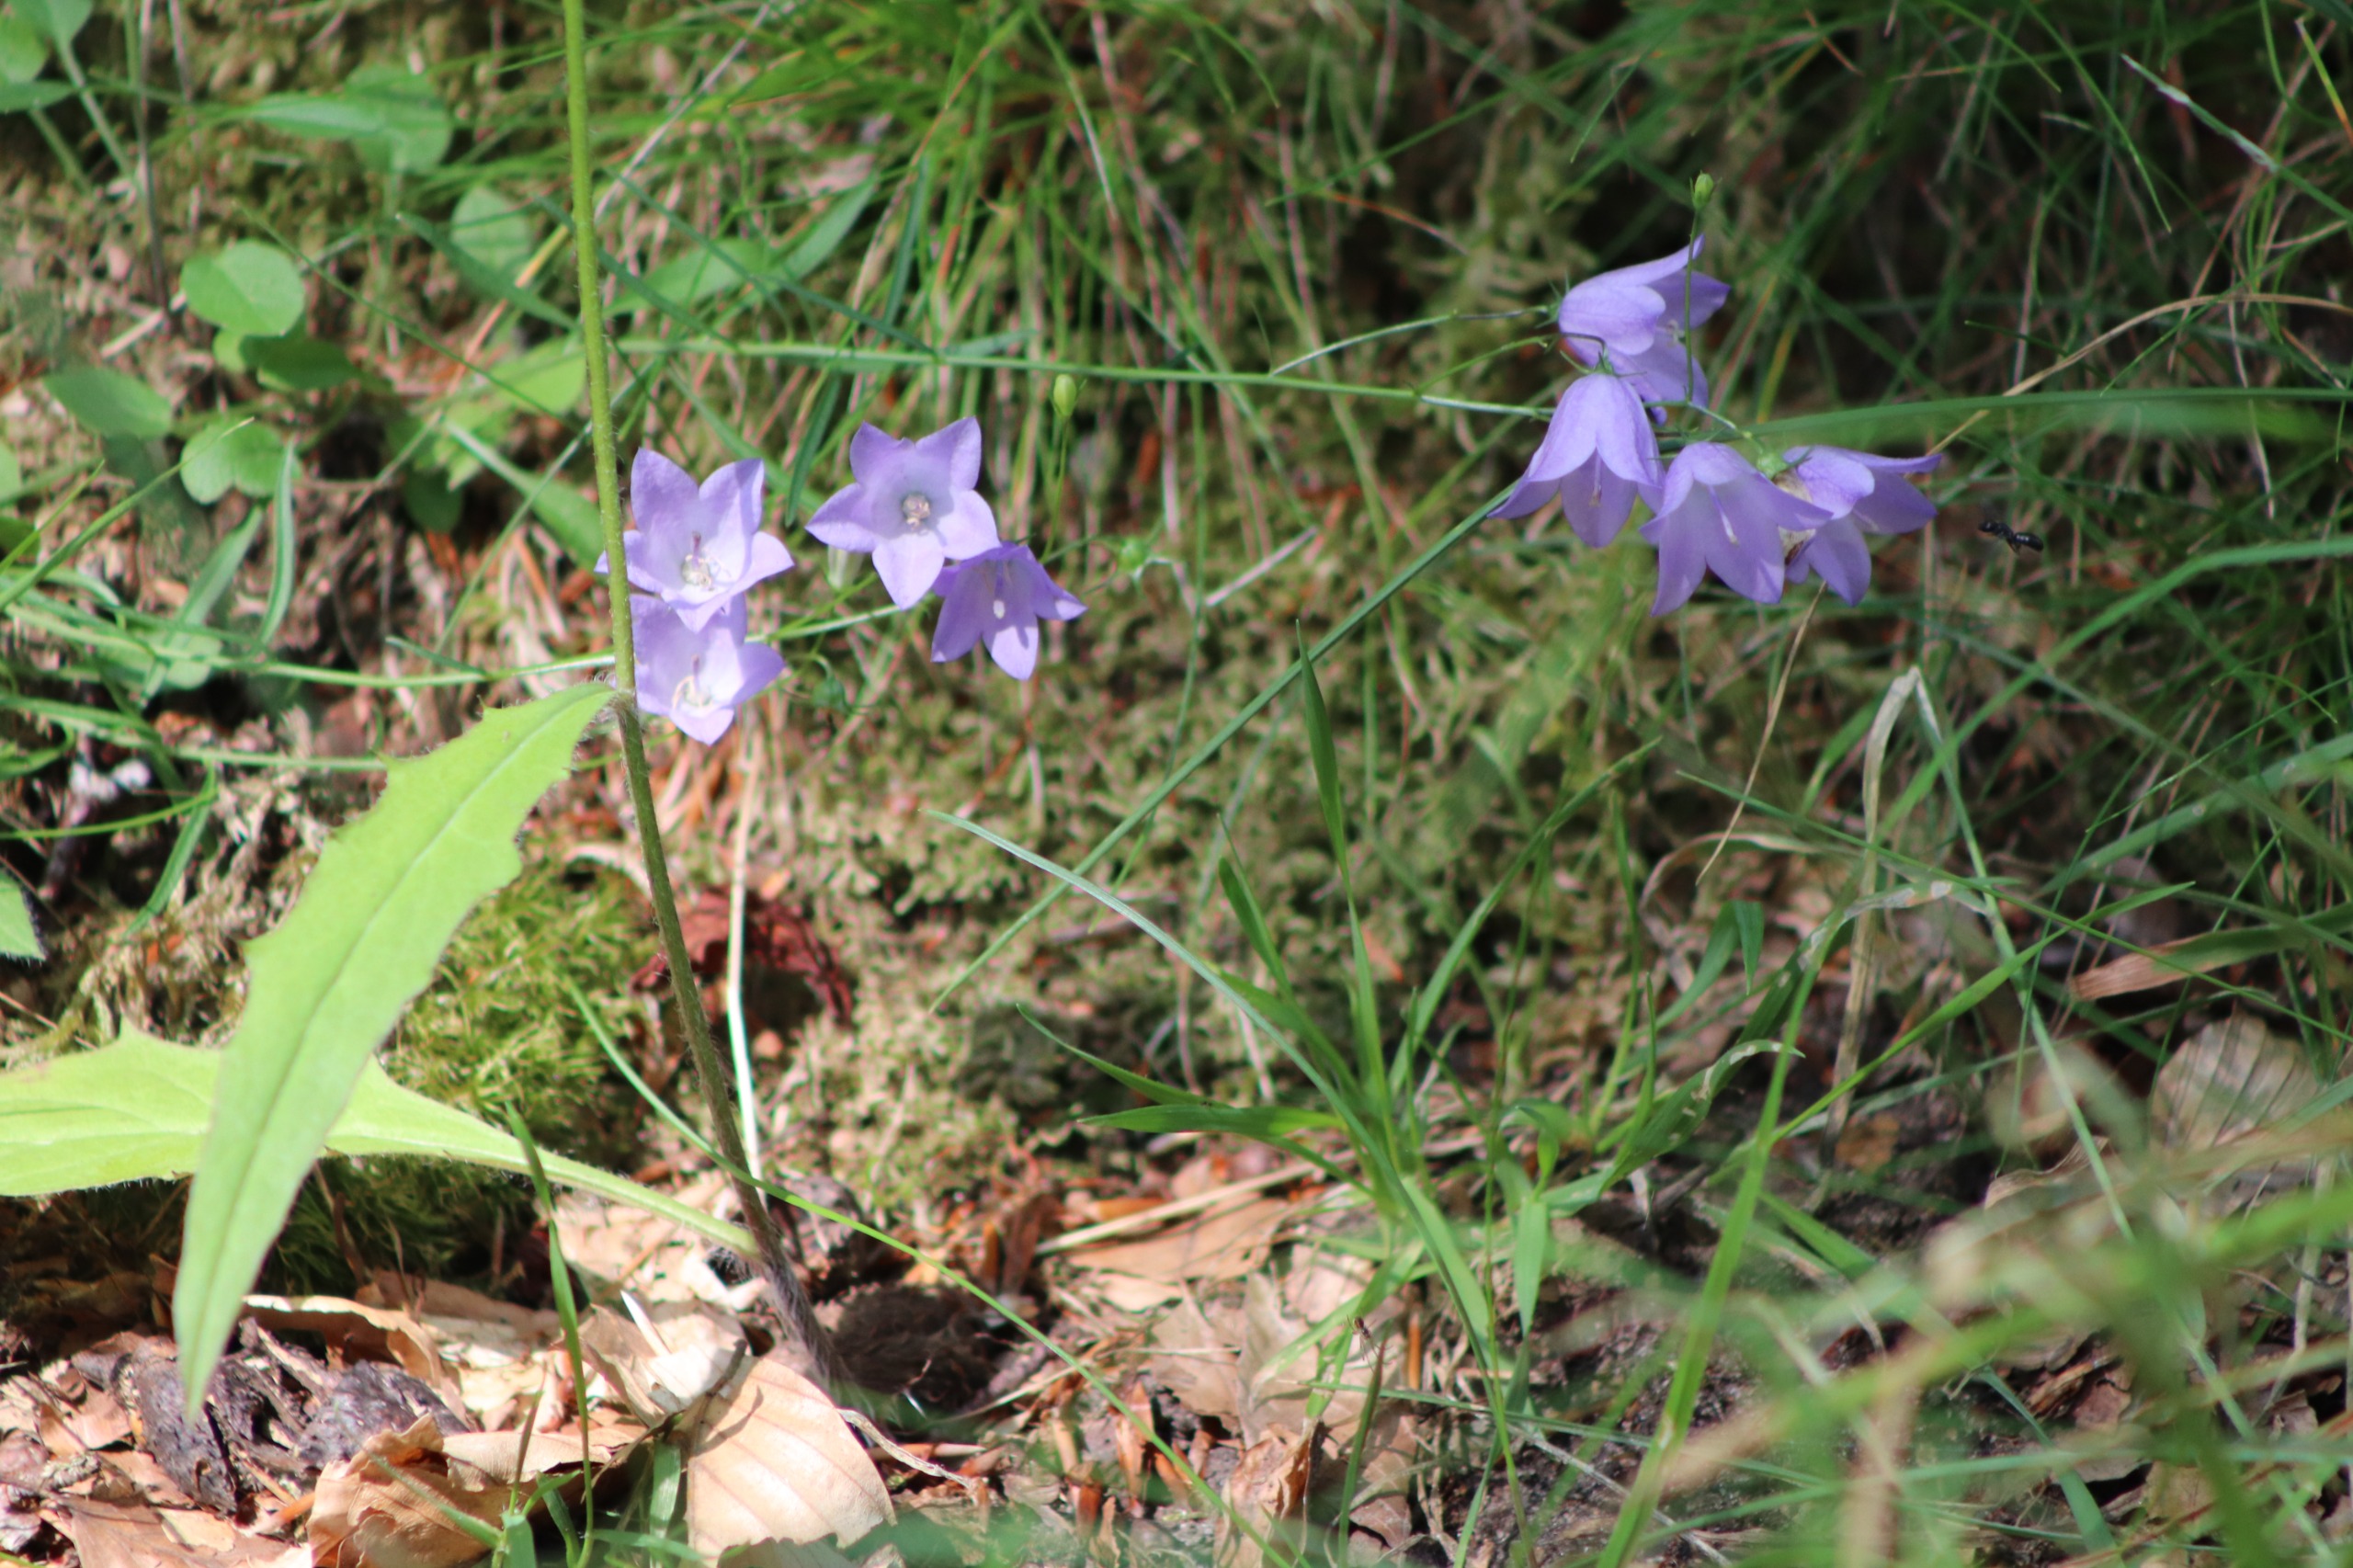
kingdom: Plantae
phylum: Tracheophyta
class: Magnoliopsida
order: Asterales
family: Campanulaceae
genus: Campanula
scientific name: Campanula rotundifolia
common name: Liden klokke
